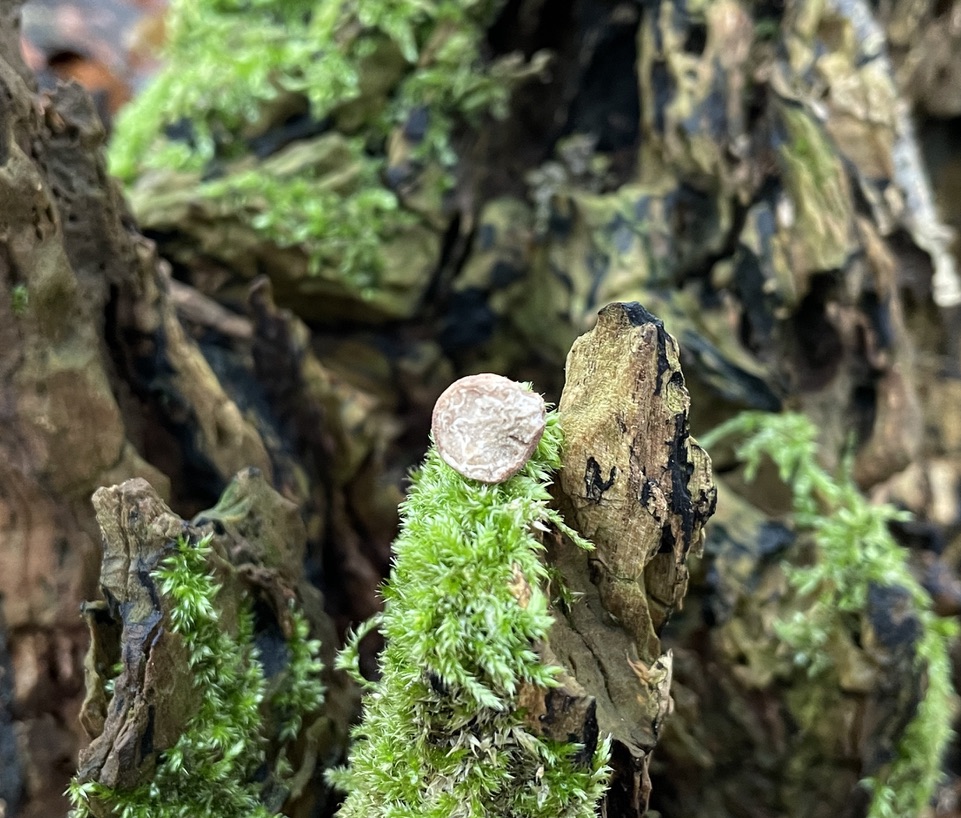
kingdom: Fungi
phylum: Ascomycota
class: Pezizomycetes
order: Pezizales
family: Tuberaceae
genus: Tuber
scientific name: Tuber rufum
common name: rødbrun trøffel
